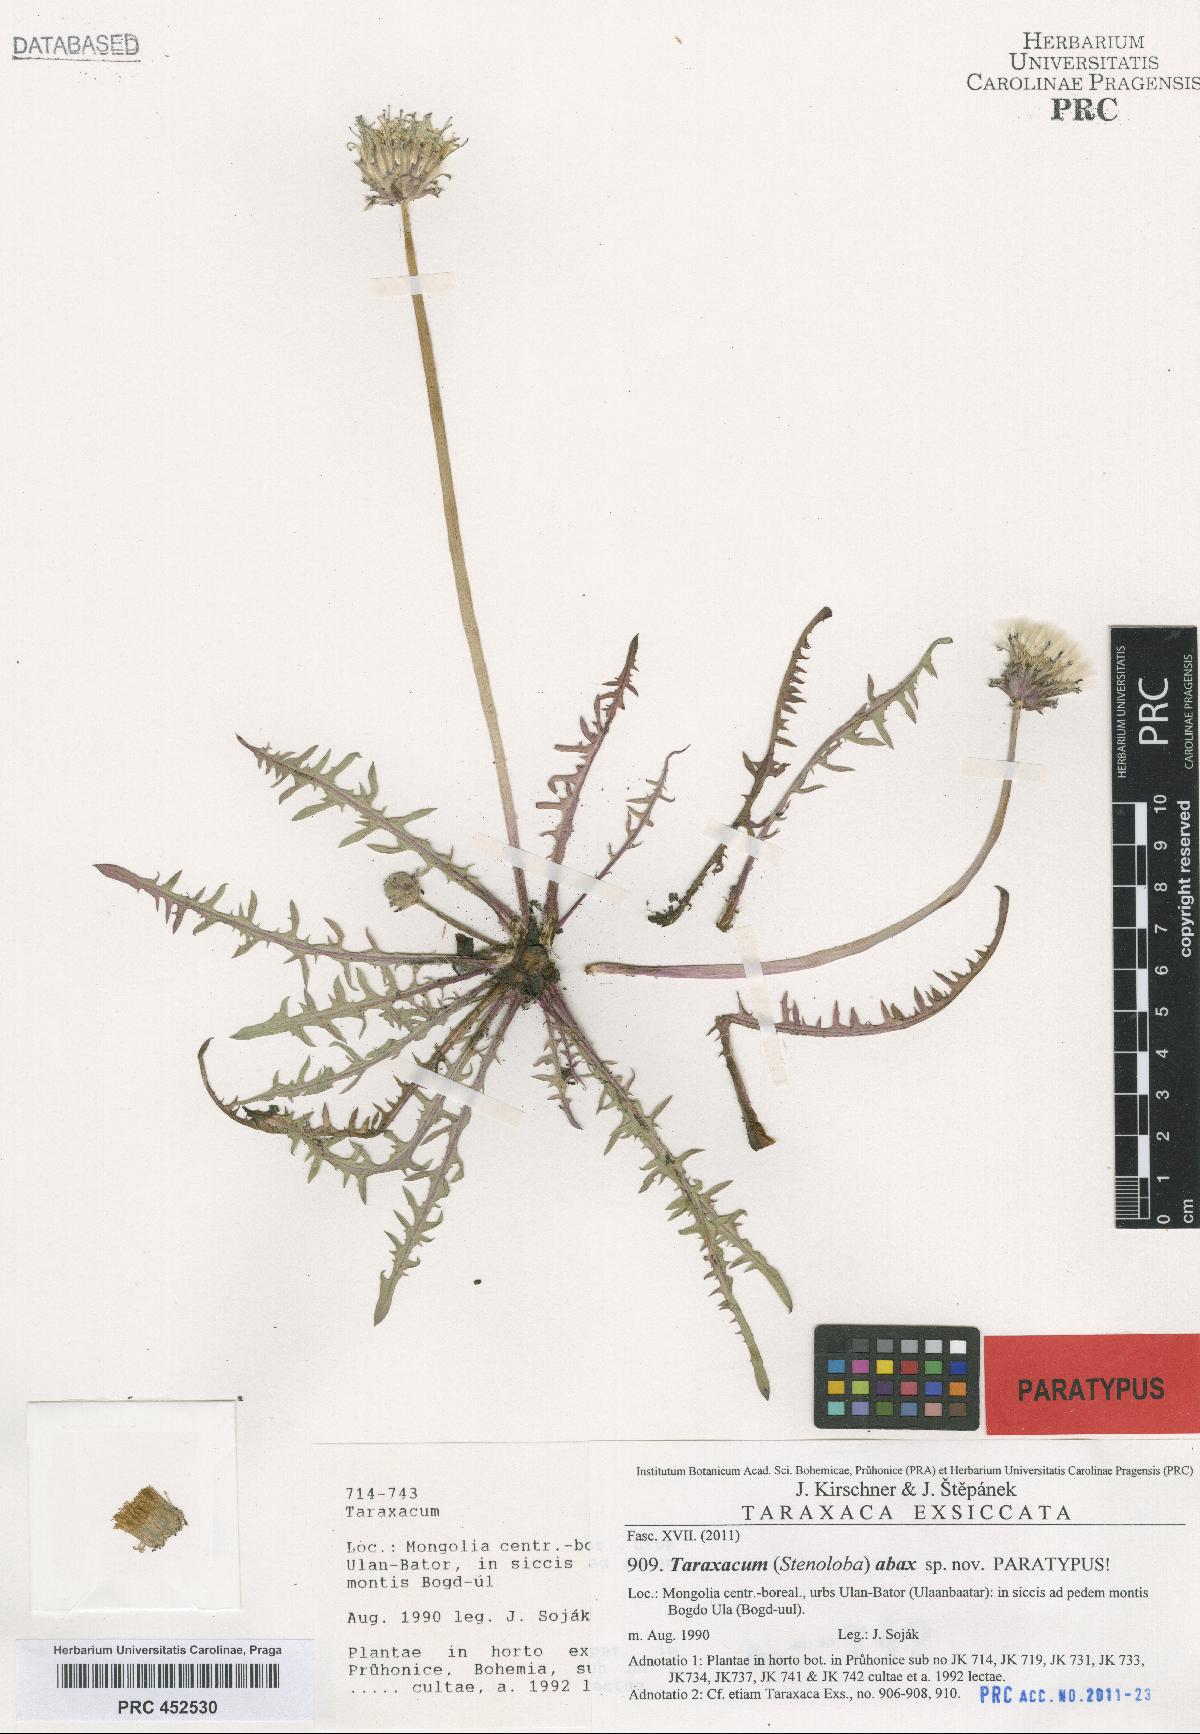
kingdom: Plantae
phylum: Tracheophyta
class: Magnoliopsida
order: Asterales
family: Asteraceae
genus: Taraxacum
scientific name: Taraxacum abax
